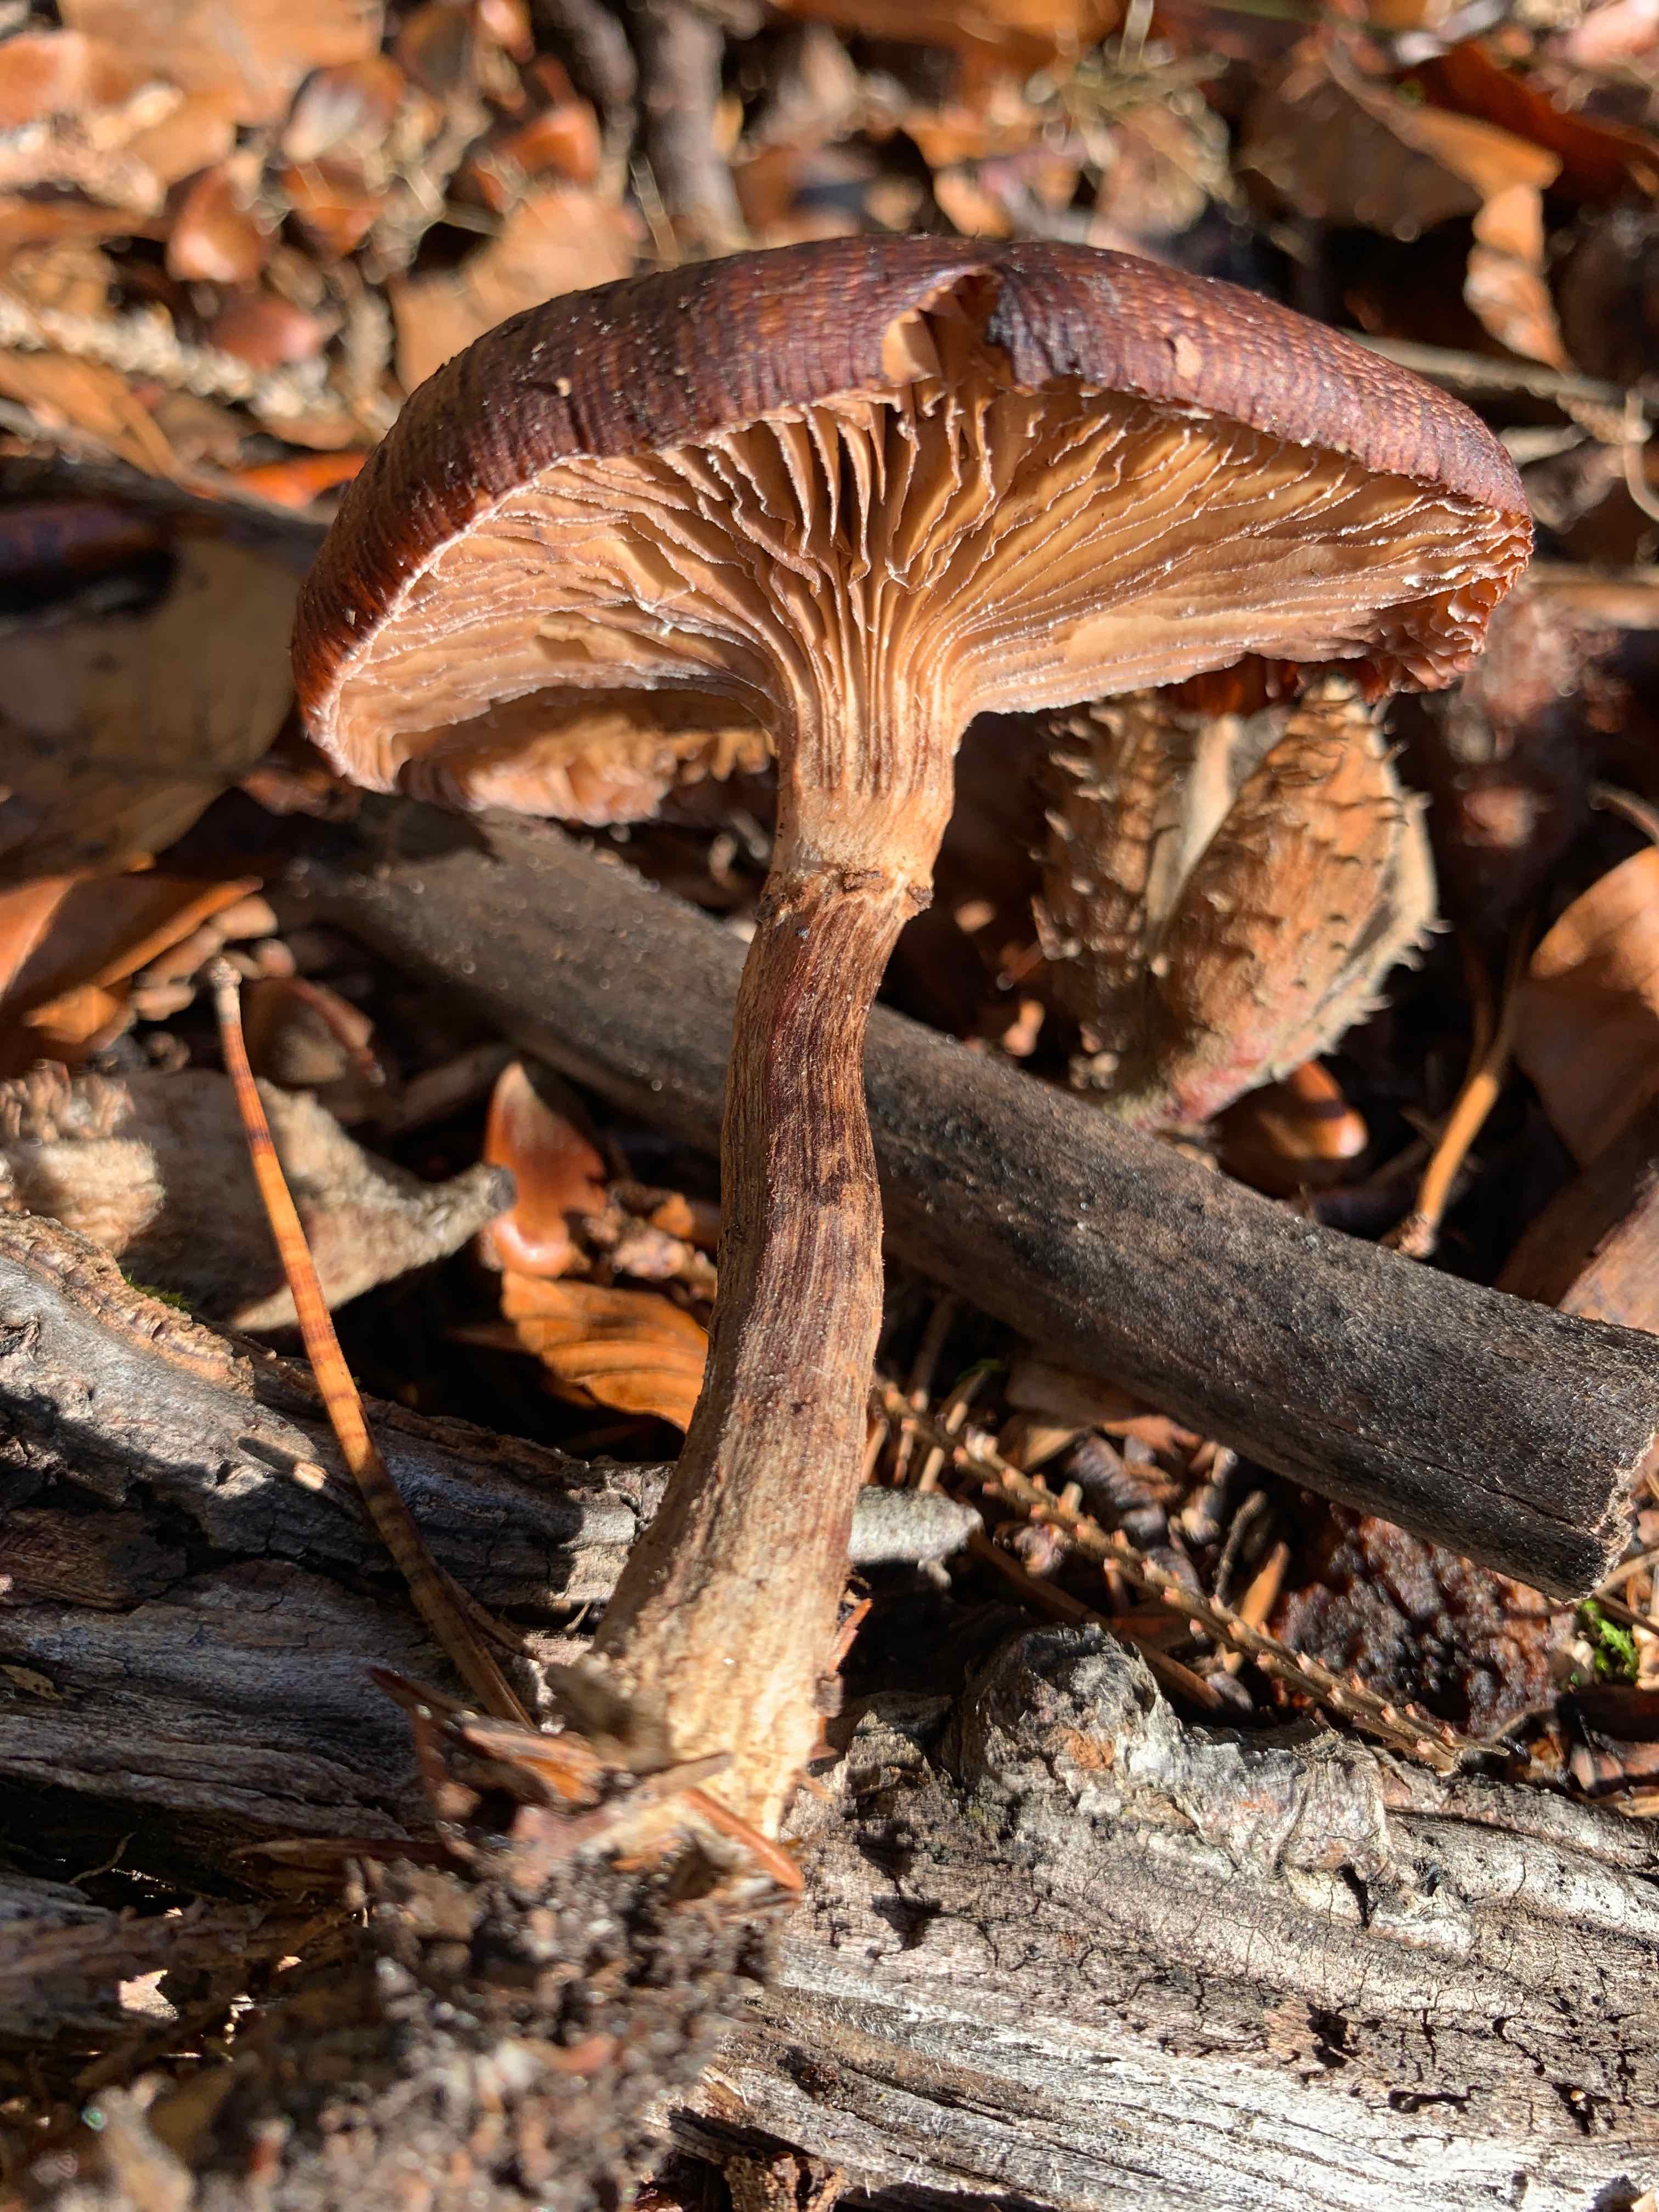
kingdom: Fungi
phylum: Basidiomycota
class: Agaricomycetes
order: Agaricales
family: Physalacriaceae
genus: Armillaria
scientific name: Armillaria
